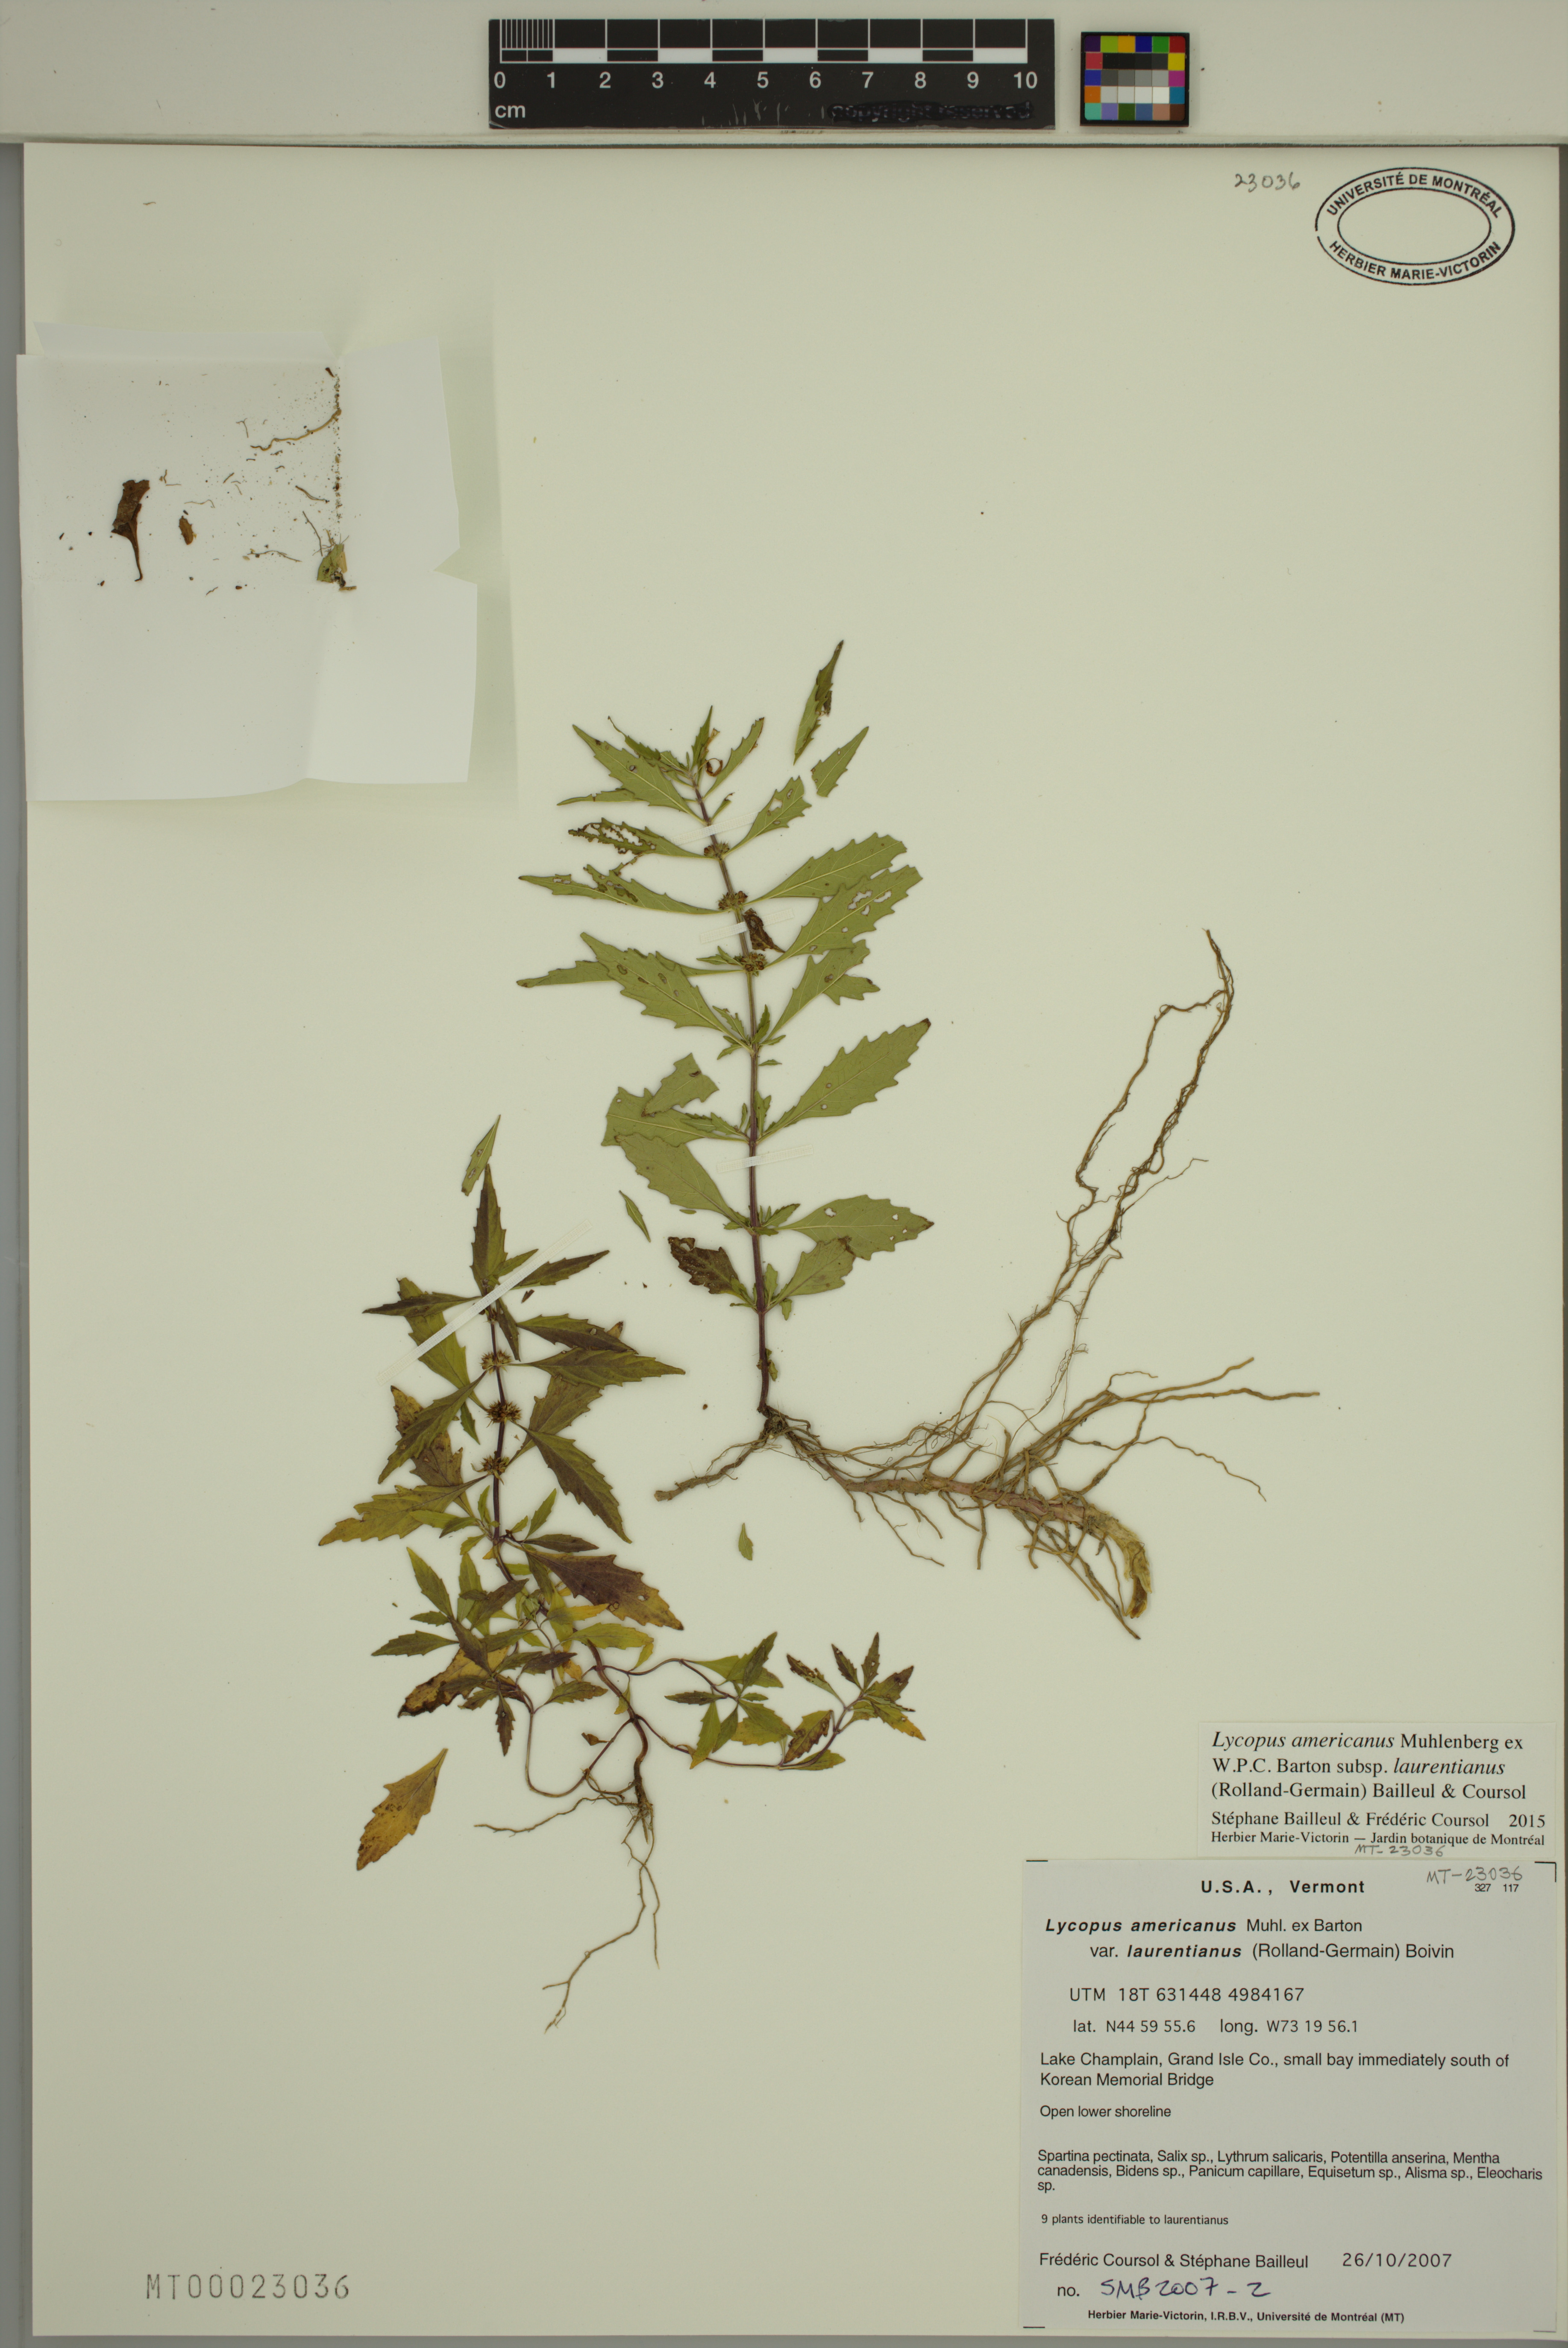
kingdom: Plantae
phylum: Tracheophyta
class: Magnoliopsida
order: Lamiales
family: Lamiaceae
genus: Lycopus
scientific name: Lycopus americanus
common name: American bugleweed
